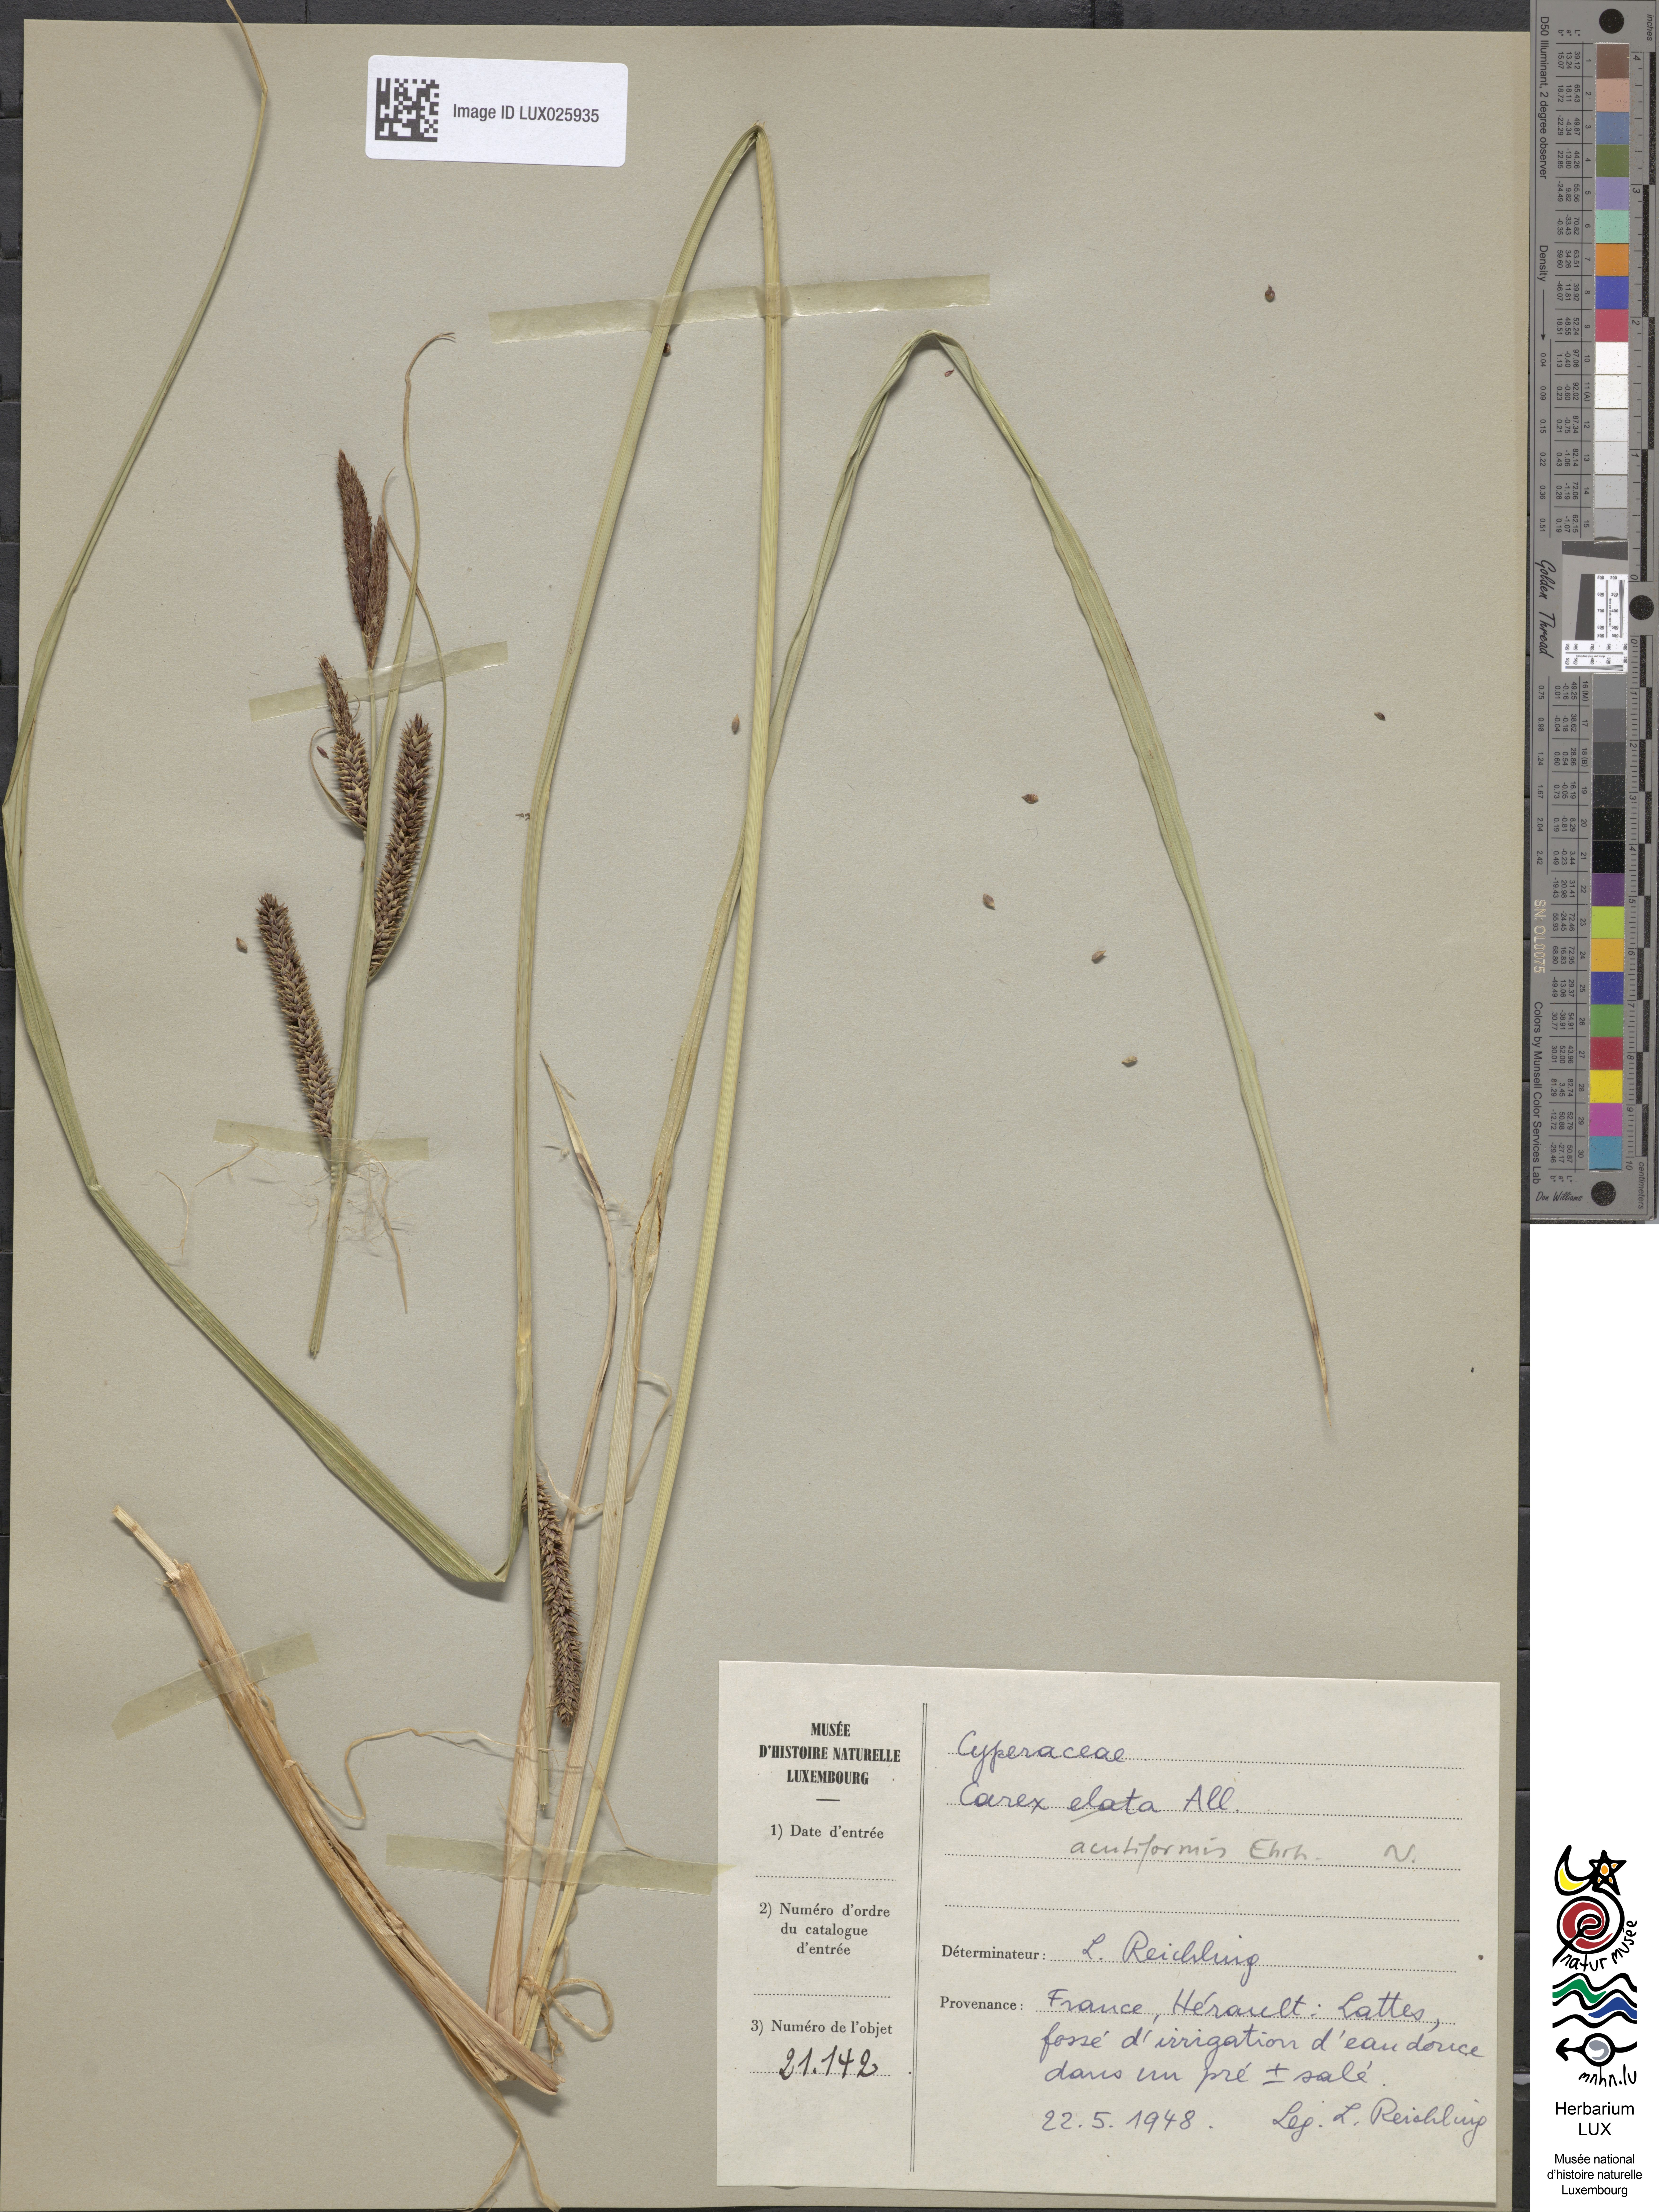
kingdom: Plantae
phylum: Tracheophyta
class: Liliopsida
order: Poales
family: Cyperaceae
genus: Carex
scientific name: Carex acutiformis
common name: Lesser pond-sedge
